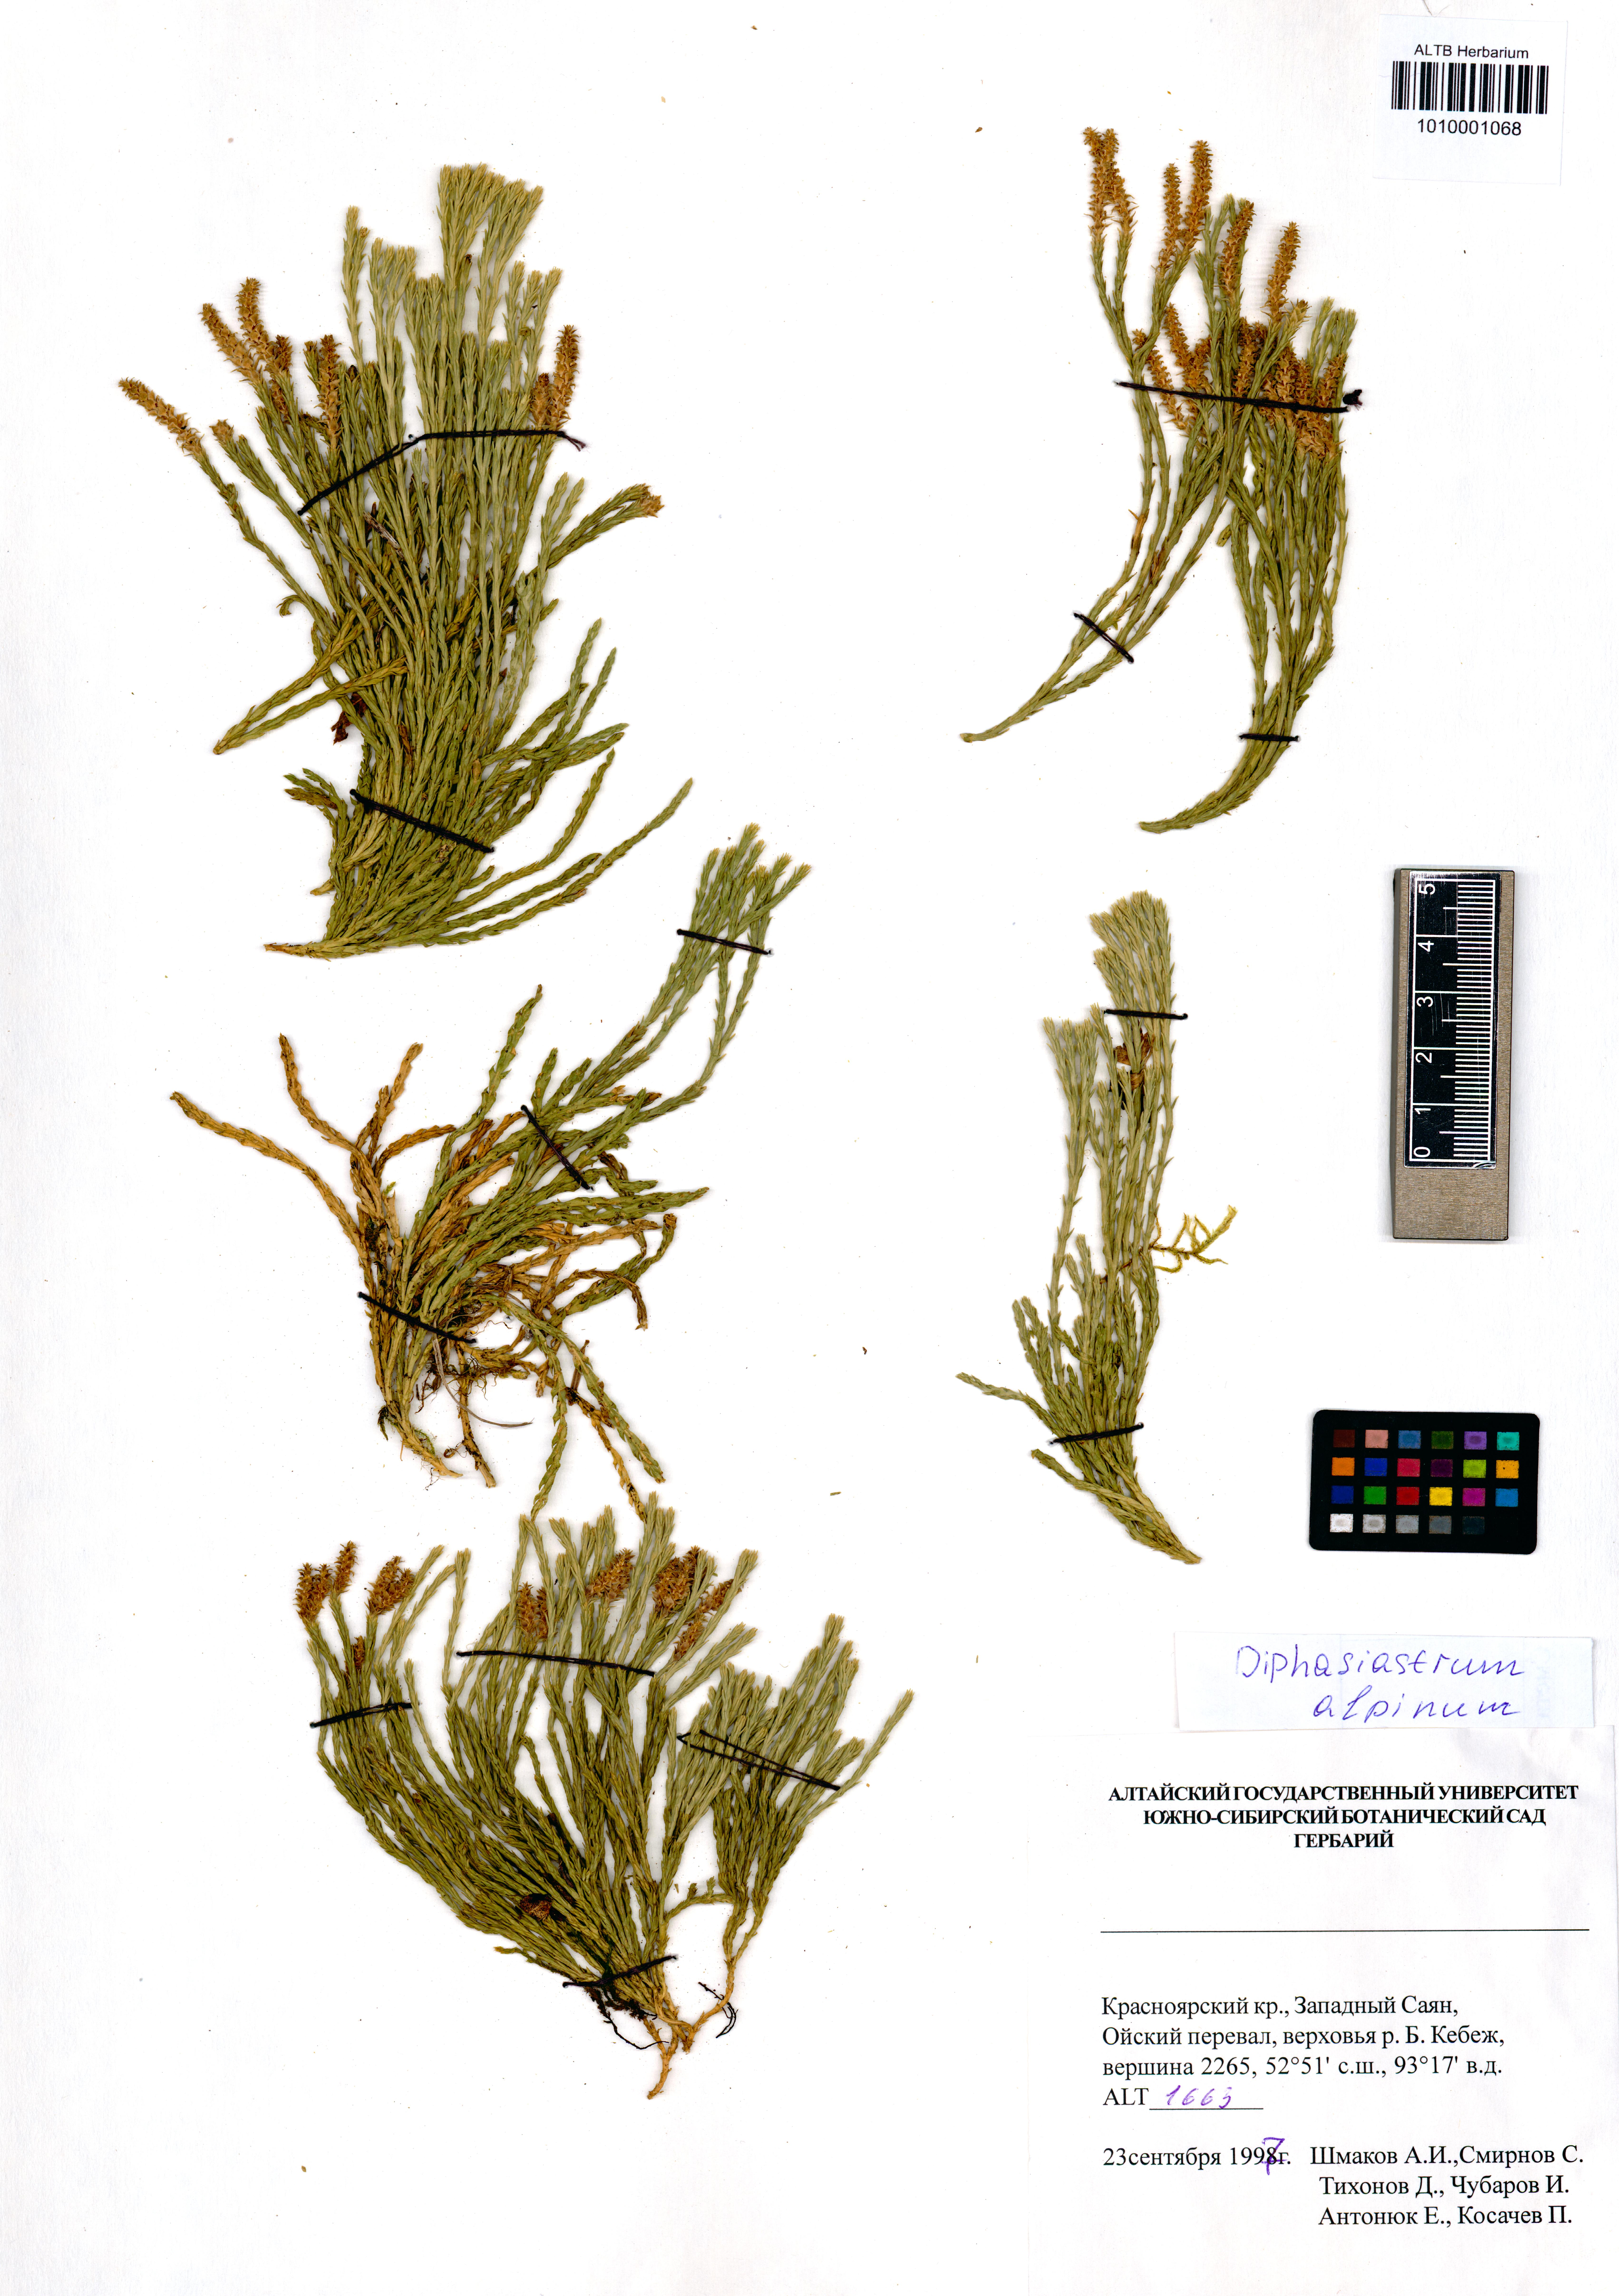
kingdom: Plantae
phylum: Tracheophyta
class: Lycopodiopsida
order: Lycopodiales
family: Lycopodiaceae
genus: Diphasiastrum
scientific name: Diphasiastrum alpinum
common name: Alpine clubmoss
